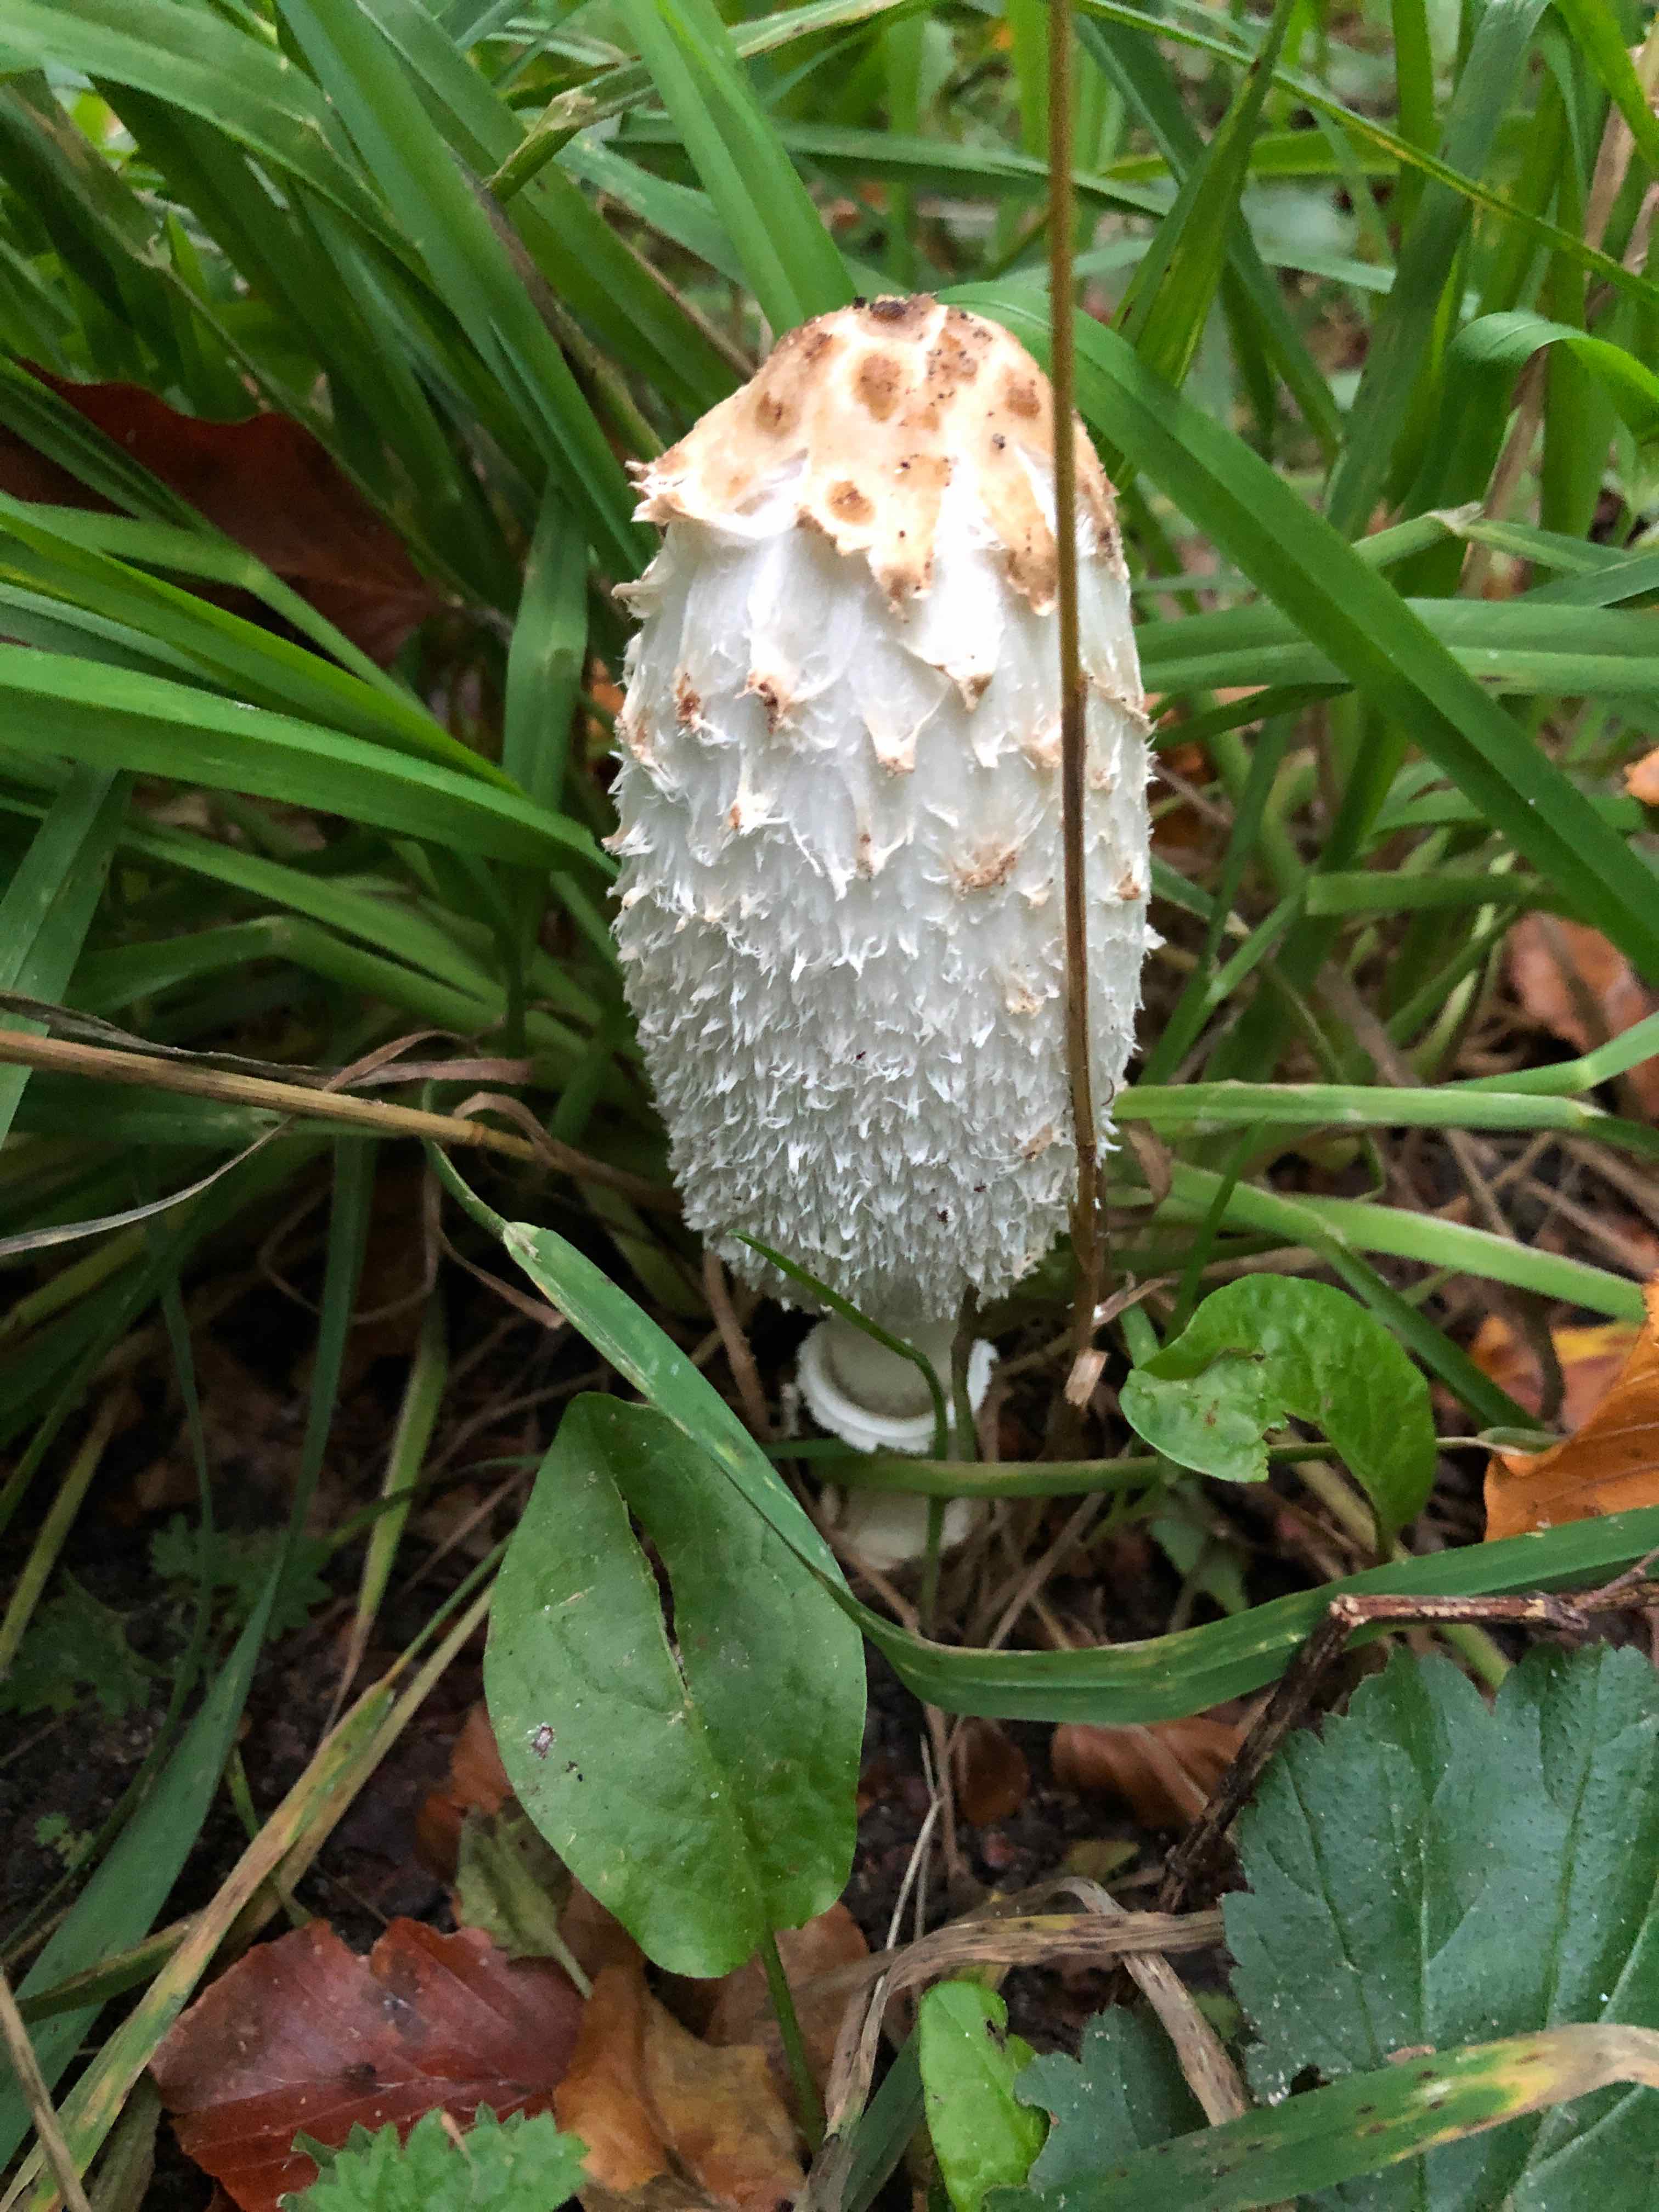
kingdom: Fungi
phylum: Basidiomycota
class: Agaricomycetes
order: Agaricales
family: Agaricaceae
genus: Coprinus
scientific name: Coprinus comatus
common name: stor parykhat
